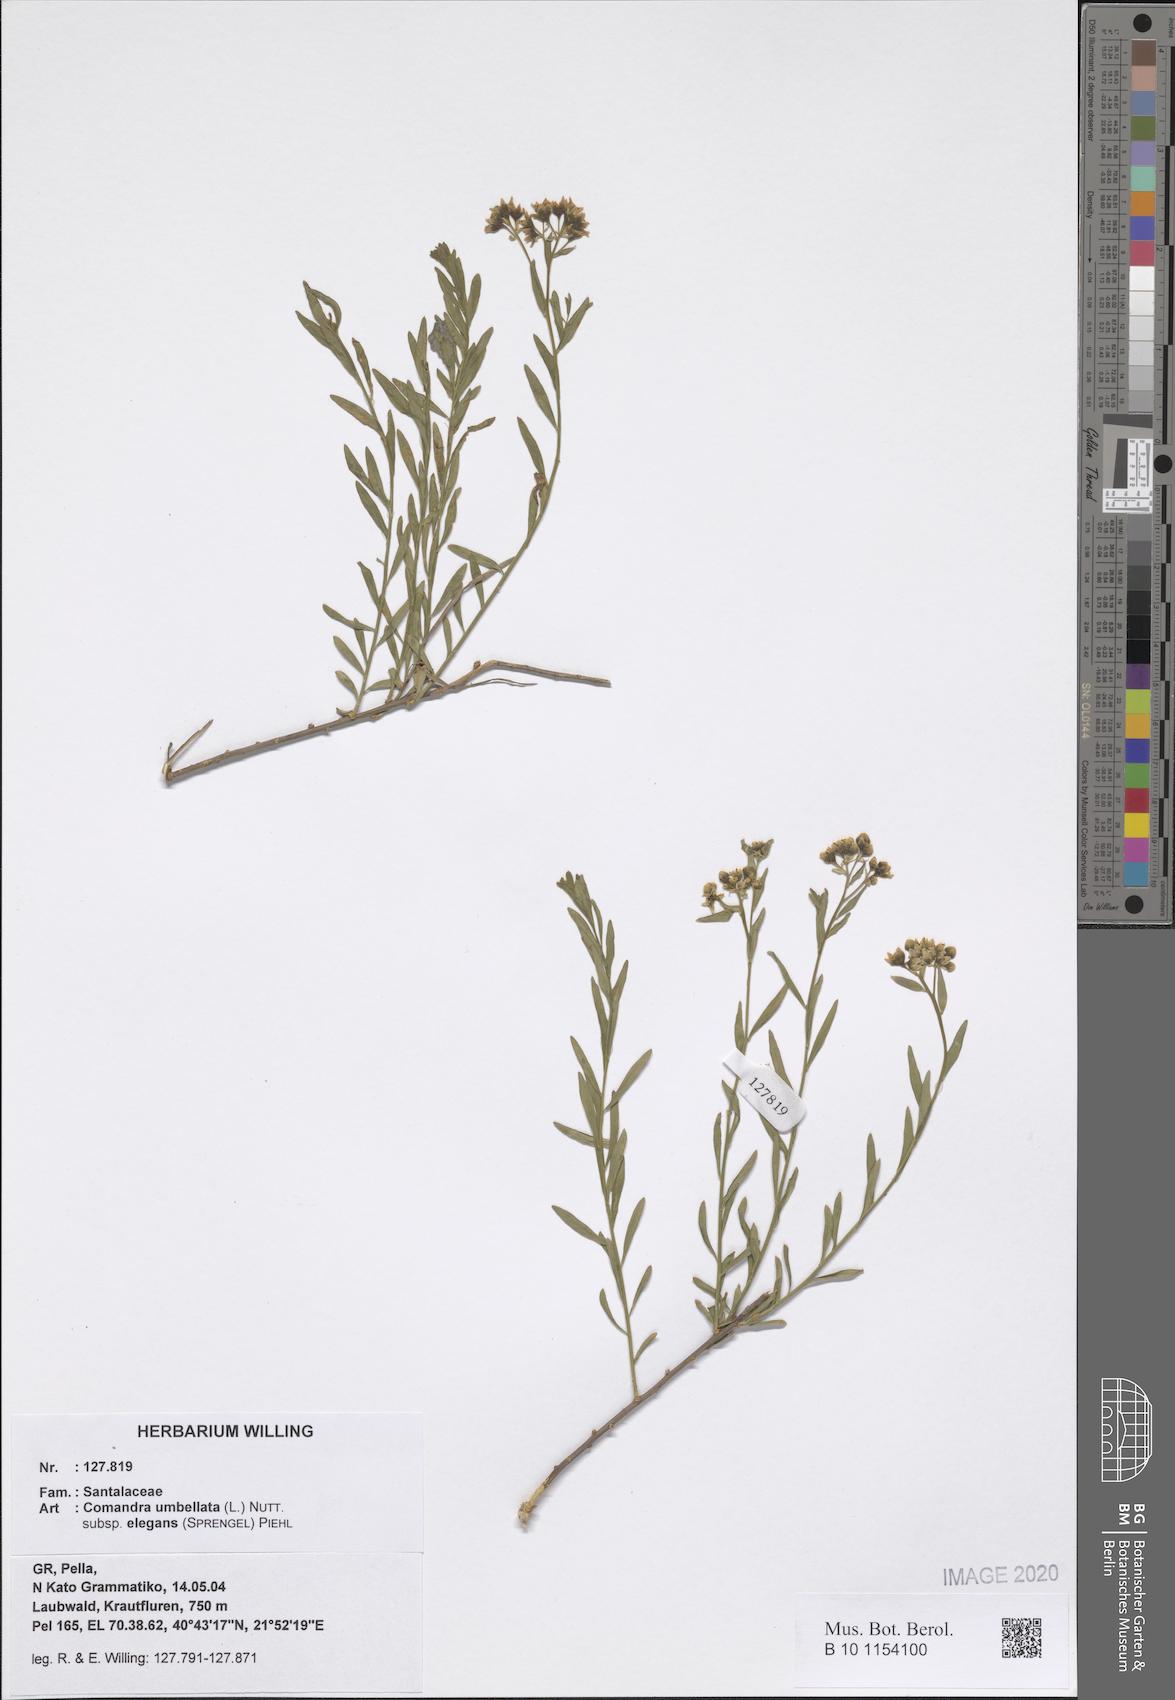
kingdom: Plantae
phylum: Tracheophyta
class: Magnoliopsida
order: Santalales
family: Comandraceae
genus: Comandra
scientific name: Comandra umbellata
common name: Bastard toadflax
